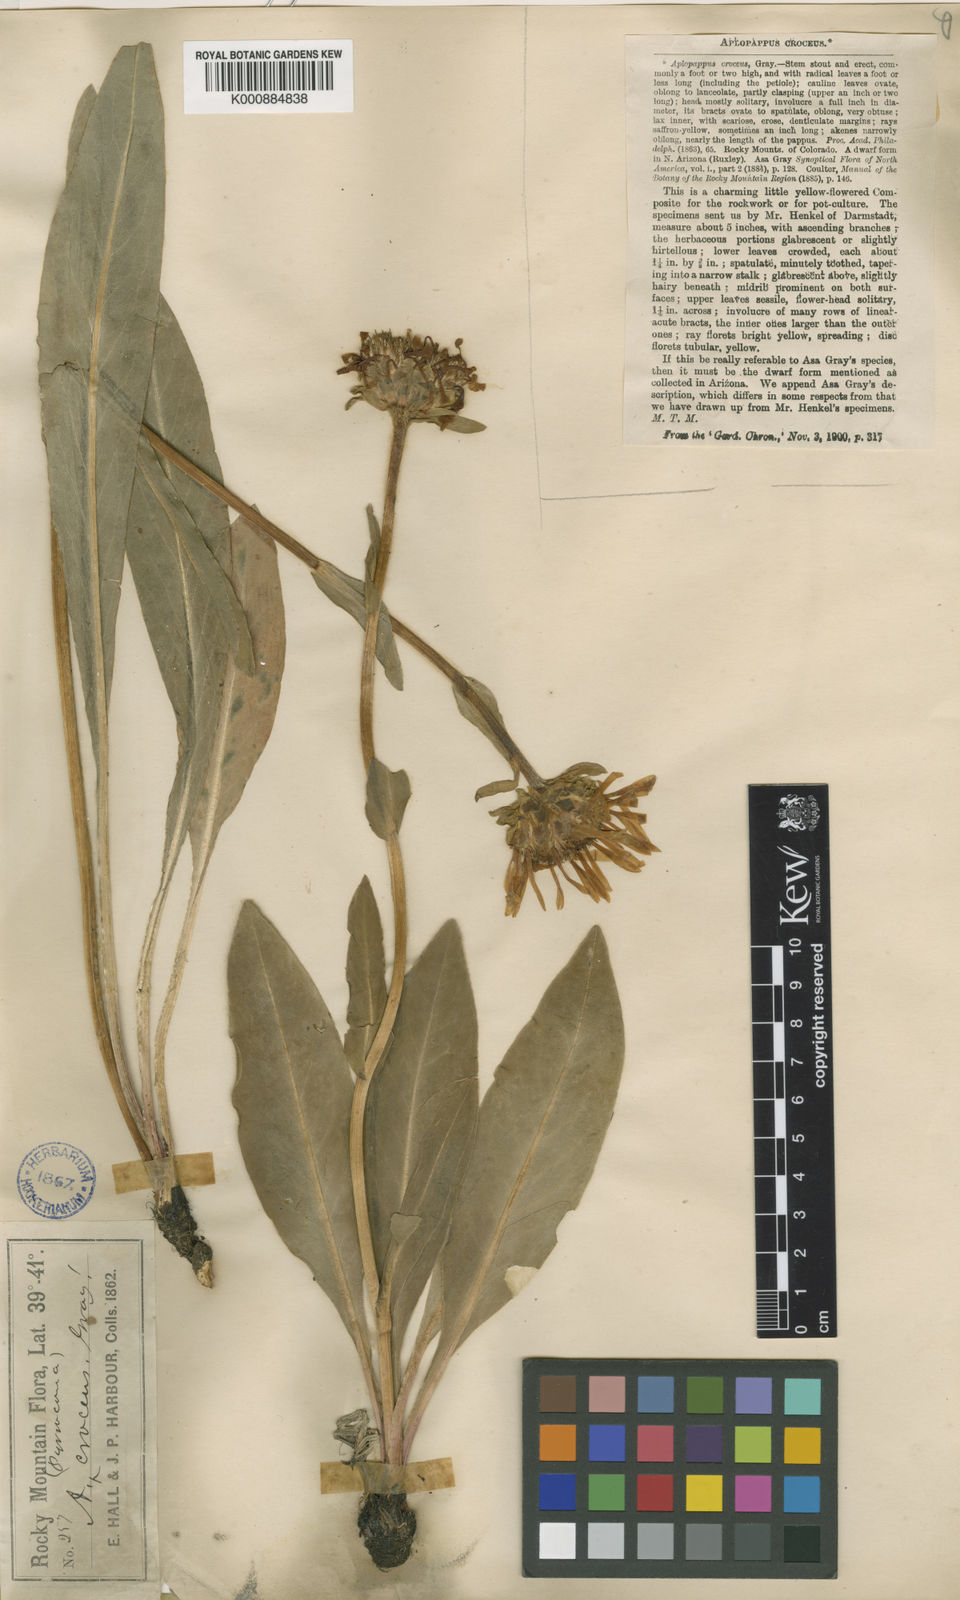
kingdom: Plantae
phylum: Tracheophyta
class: Magnoliopsida
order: Asterales
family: Asteraceae
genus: Pyrrocoma
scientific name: Pyrrocoma crocea
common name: Curly-head goldenweed
